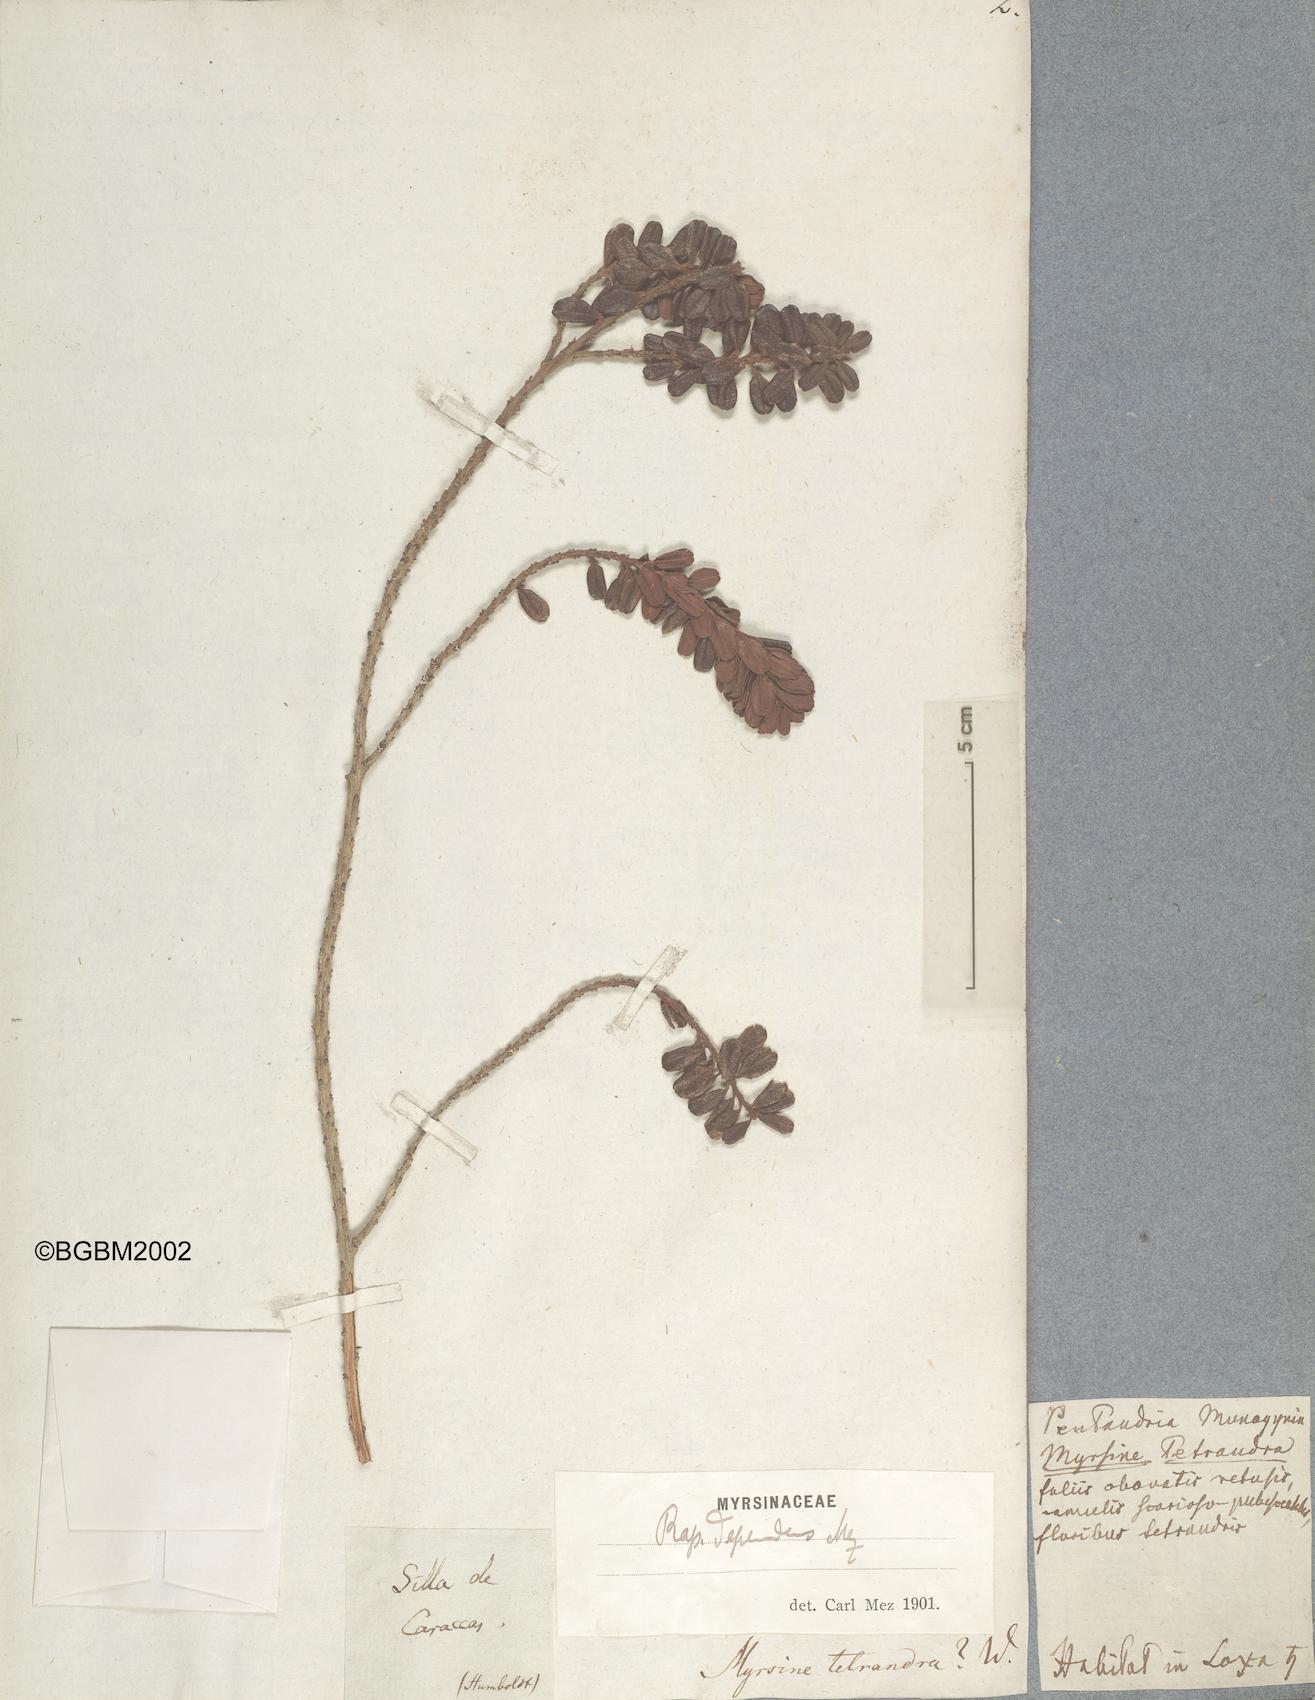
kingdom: Plantae
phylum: Tracheophyta
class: Magnoliopsida
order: Ericales
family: Primulaceae
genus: Myrsine
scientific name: Myrsine dependens
